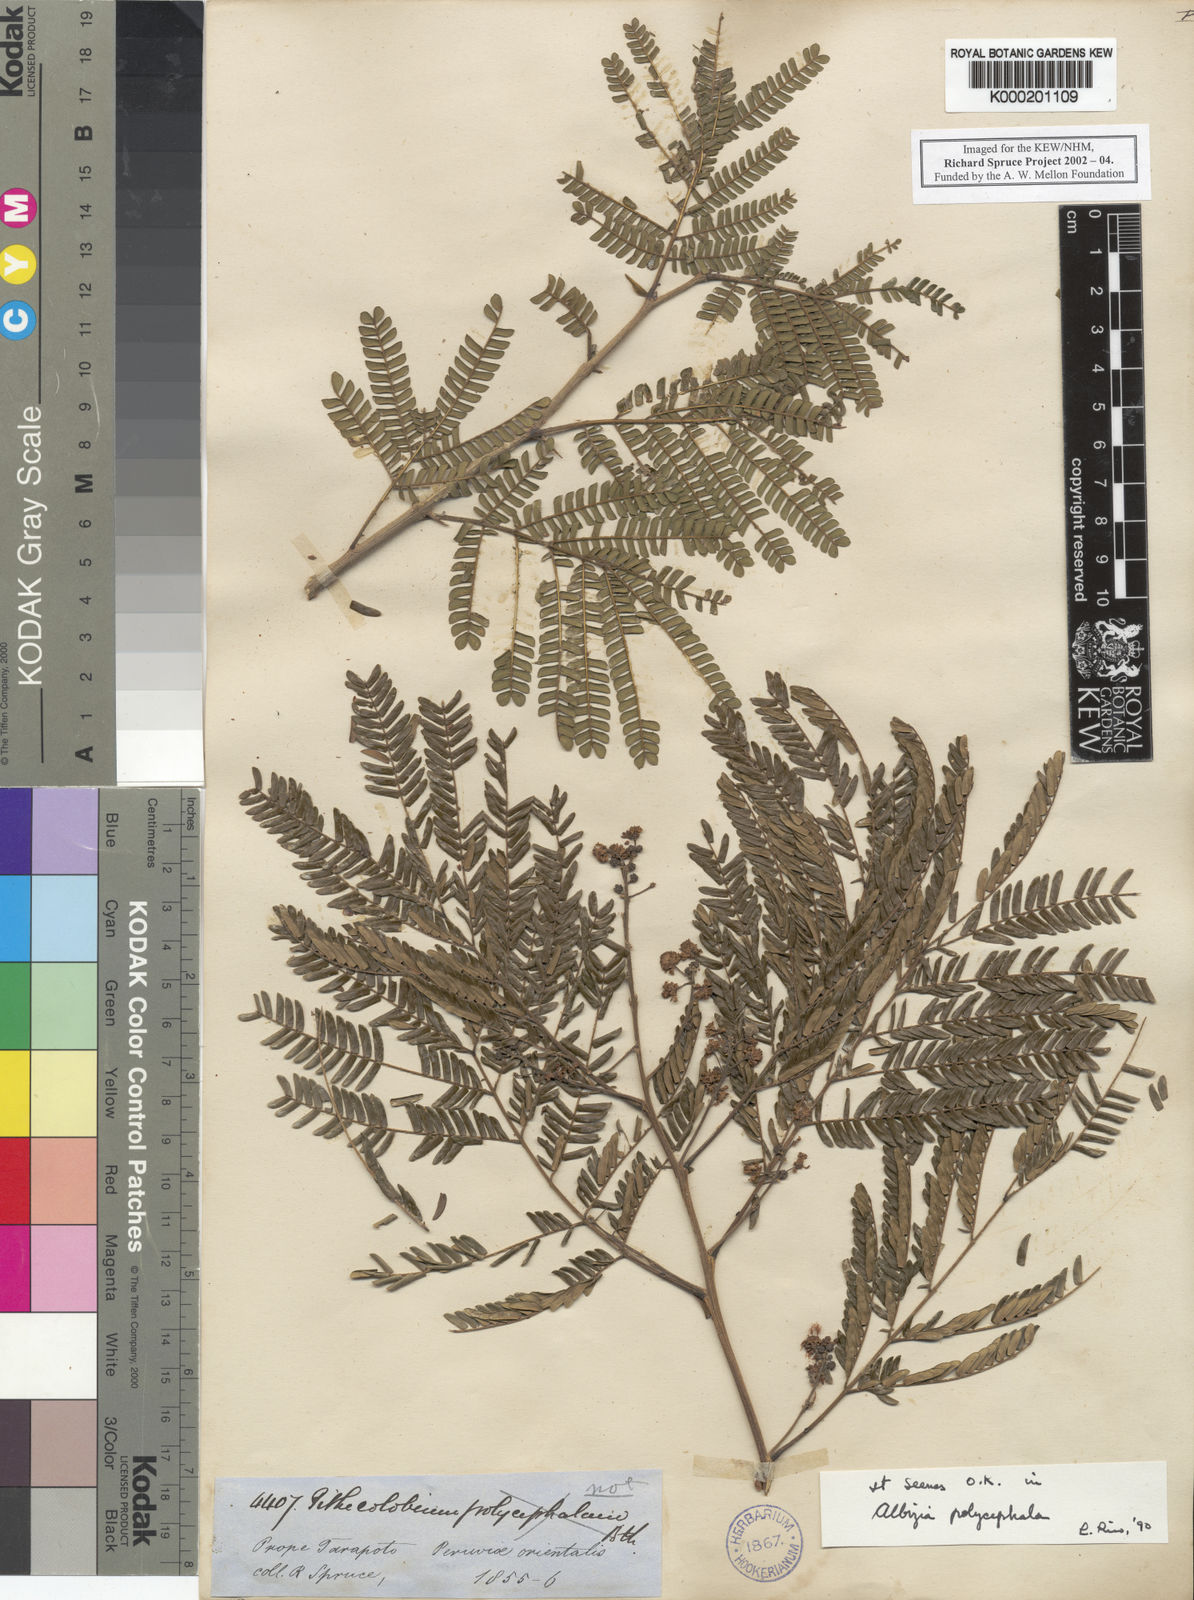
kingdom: Plantae
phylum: Tracheophyta
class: Magnoliopsida
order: Fabales
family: Fabaceae
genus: Albizia
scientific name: Albizia
